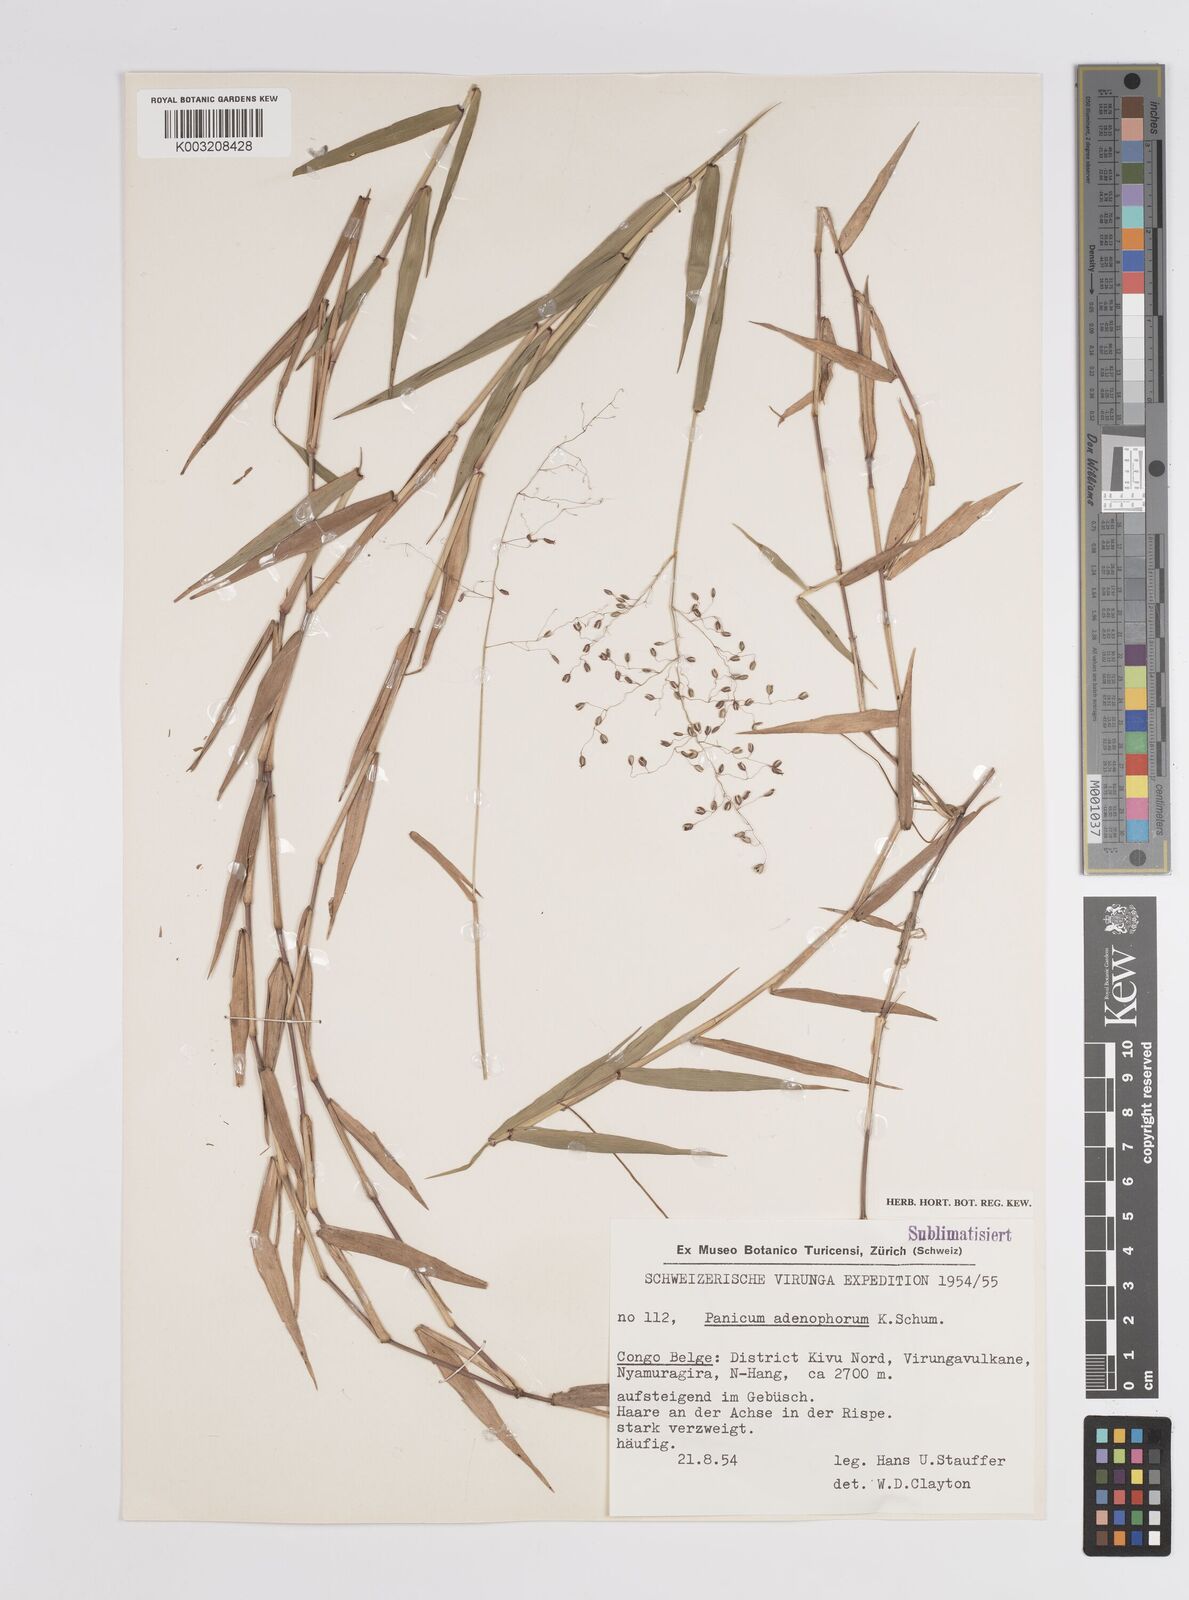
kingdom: Plantae
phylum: Tracheophyta
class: Liliopsida
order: Poales
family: Poaceae
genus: Adenochloa
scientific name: Adenochloa adenophora
